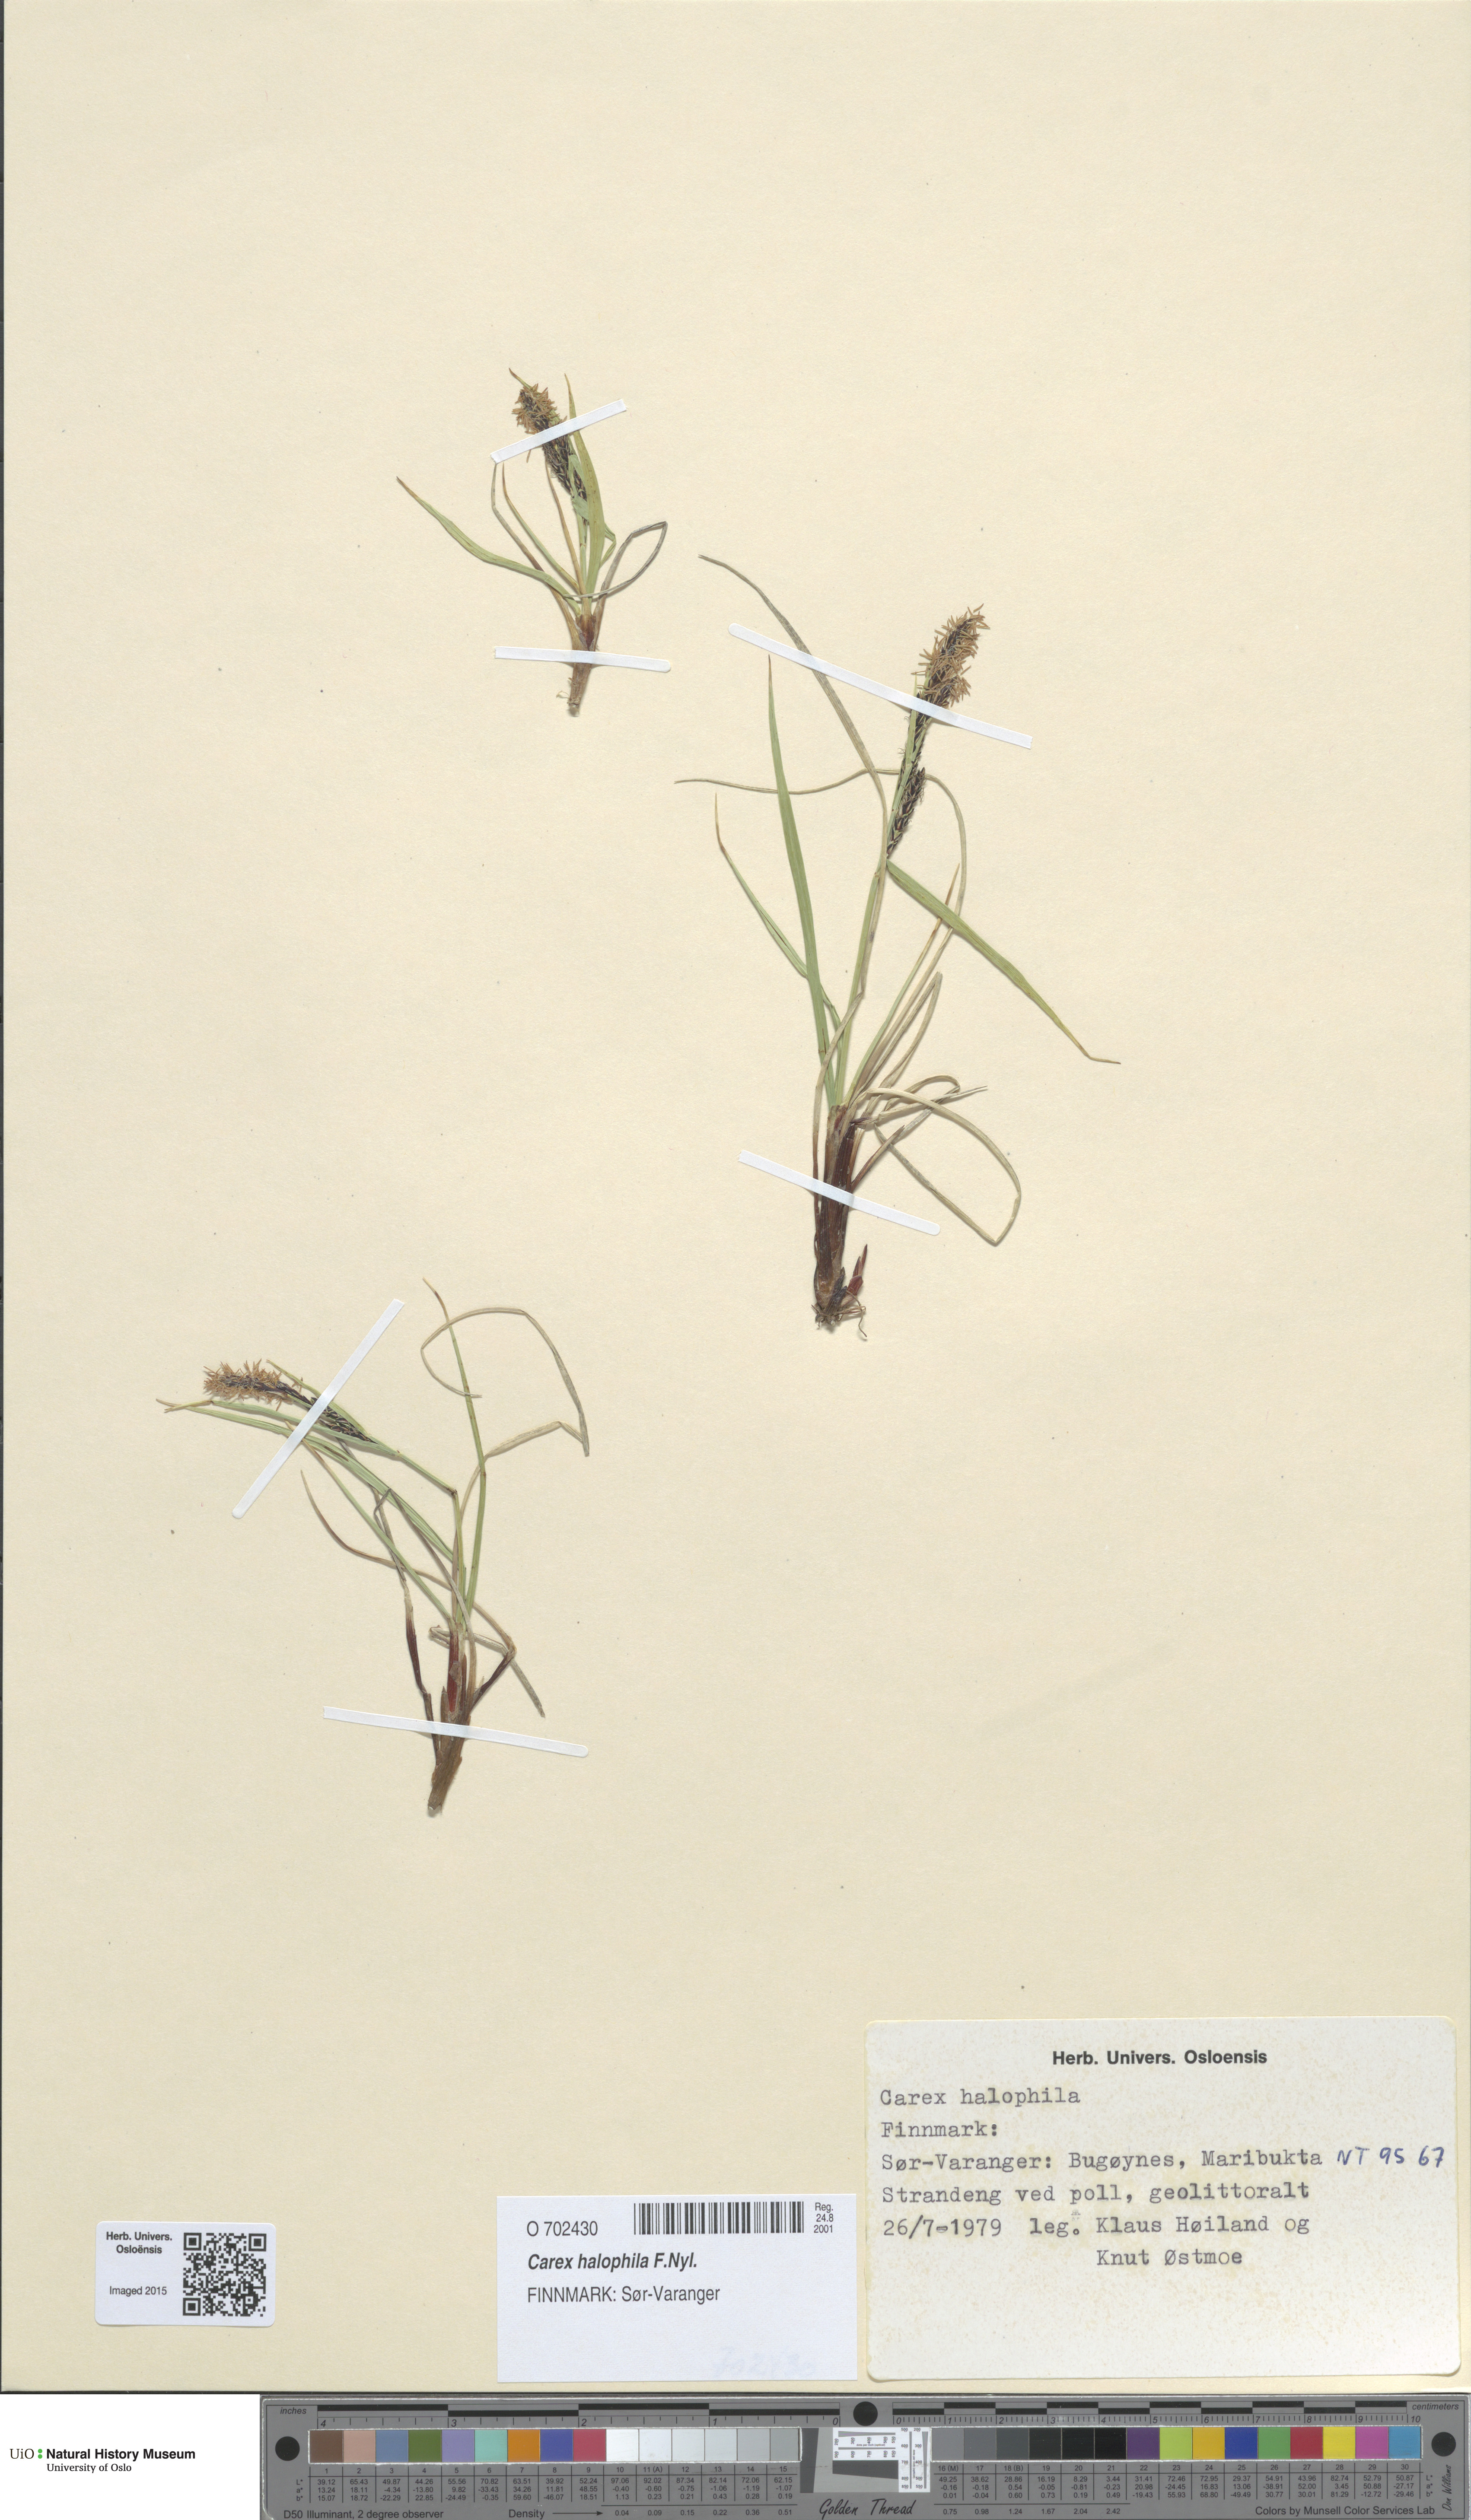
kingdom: Plantae
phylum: Tracheophyta
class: Liliopsida
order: Poales
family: Cyperaceae
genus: Carex
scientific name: Carex halophila
